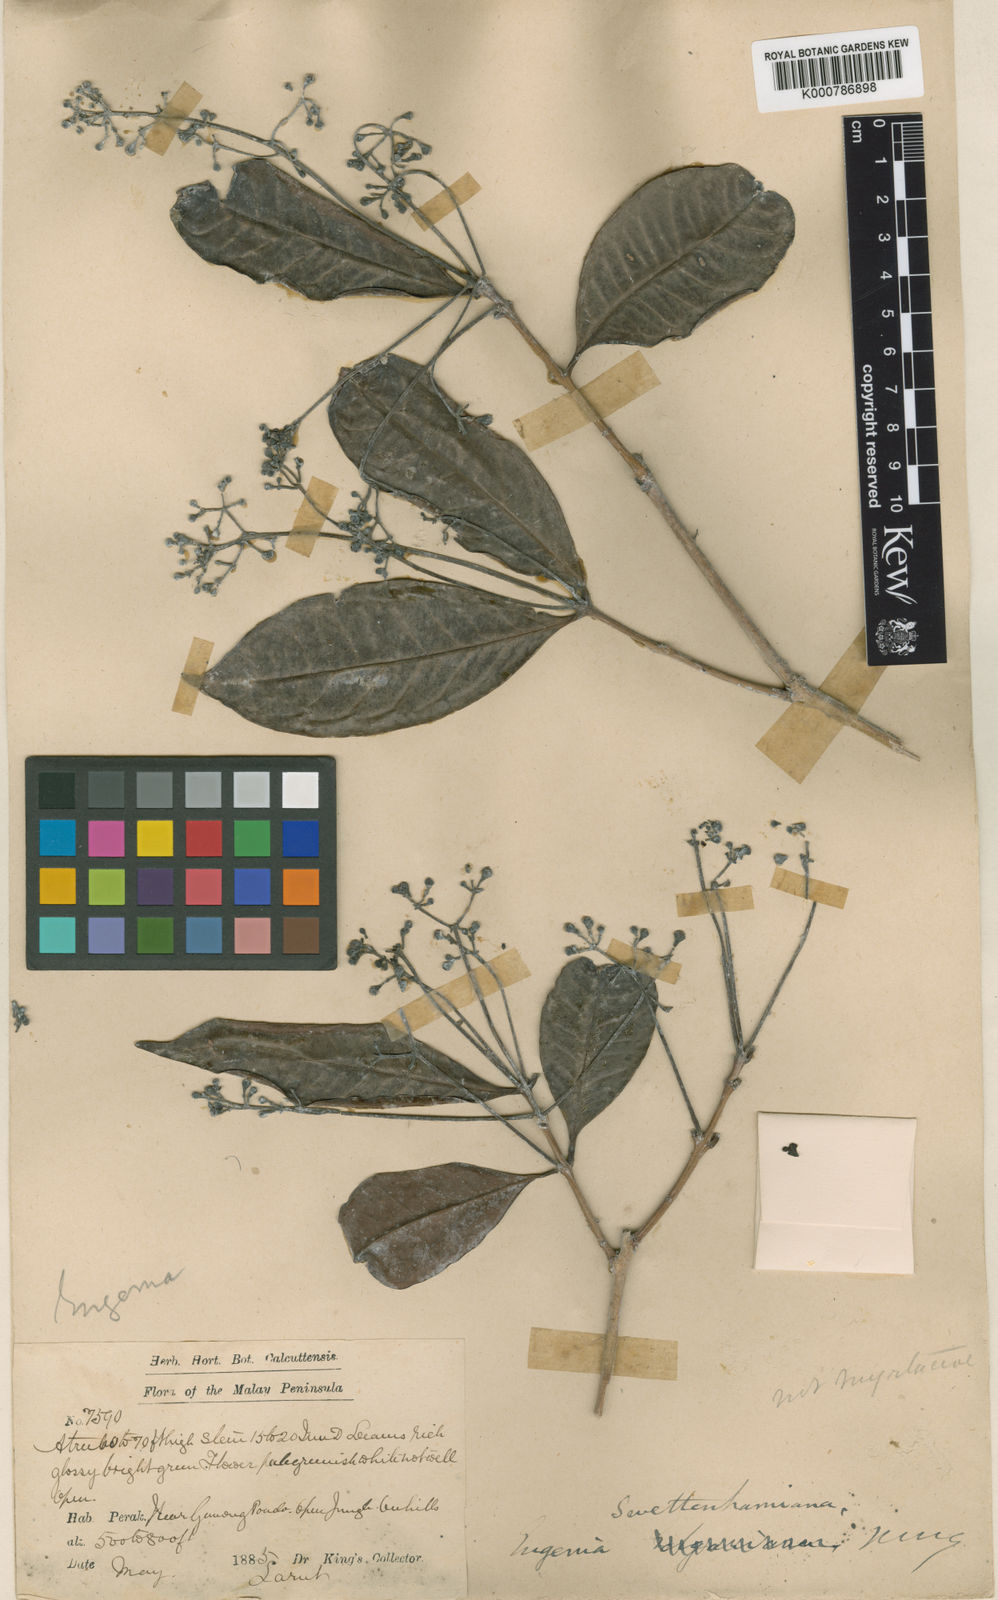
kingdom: Plantae
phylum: Tracheophyta
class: Magnoliopsida
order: Myrtales
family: Myrtaceae
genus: Syzygium
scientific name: Syzygium swettenhamianum
